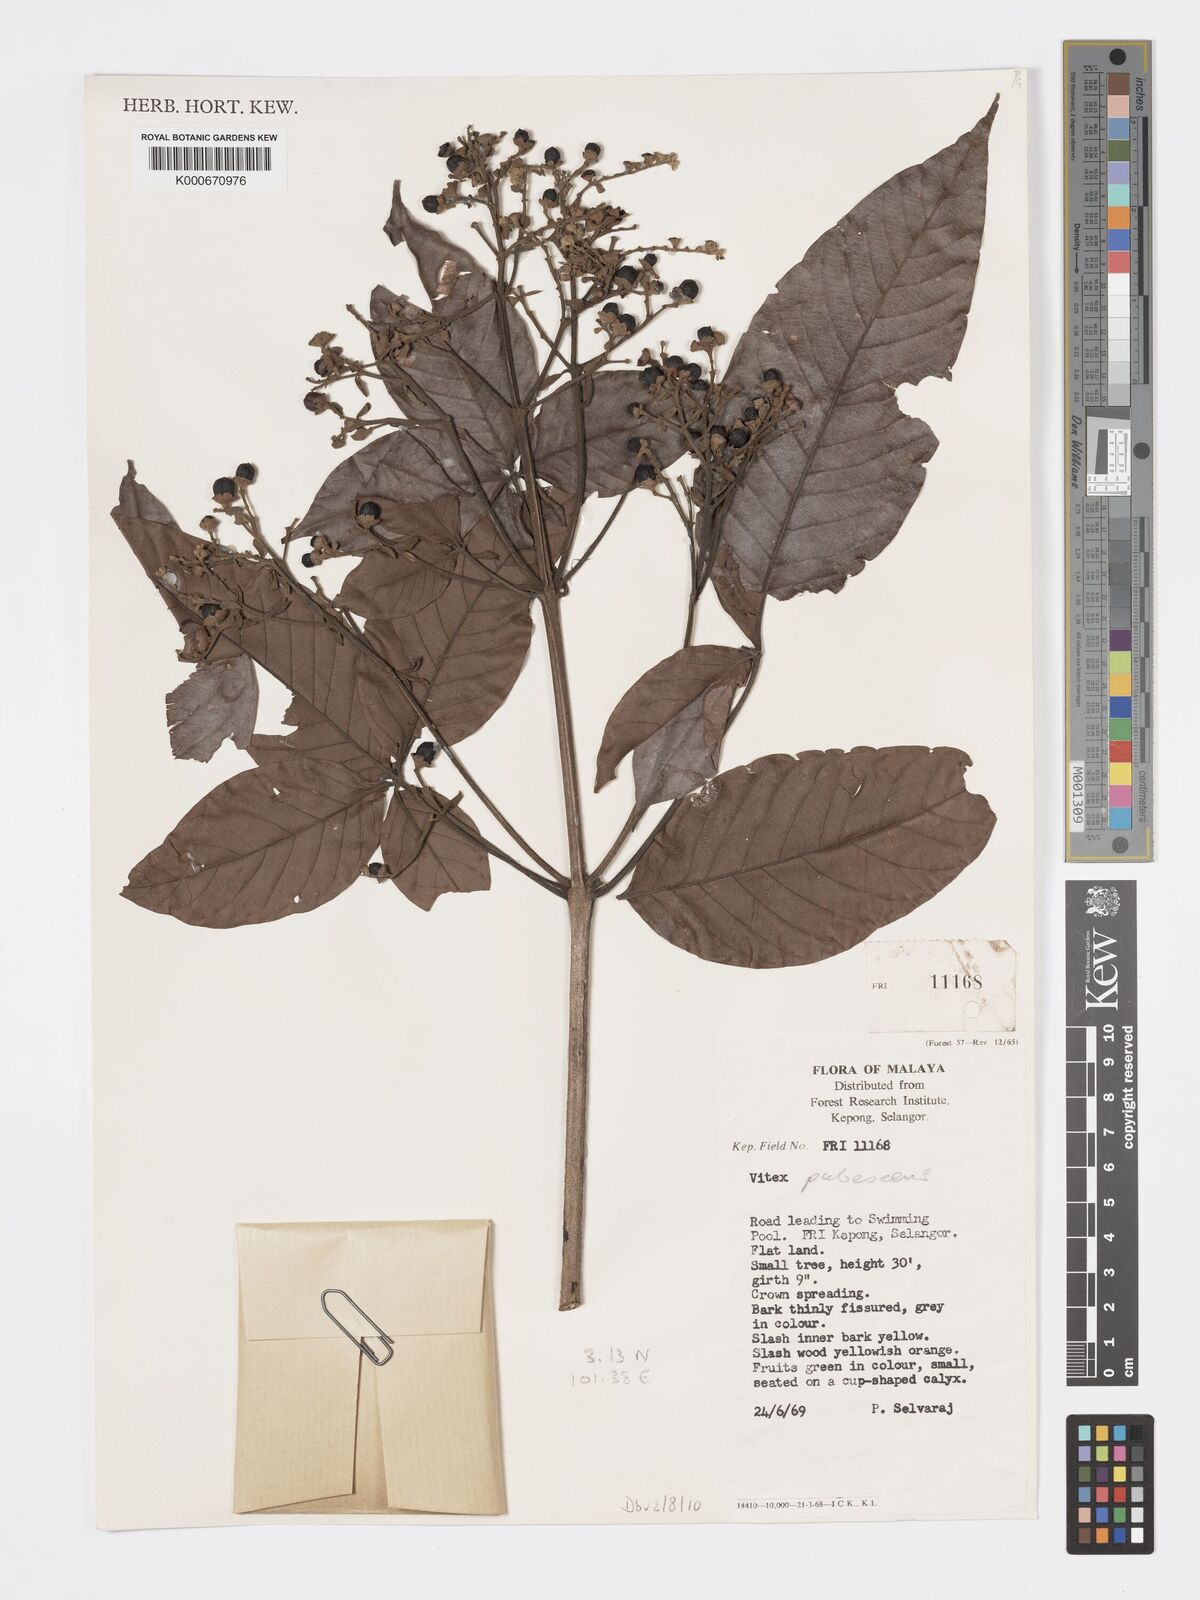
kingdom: Plantae
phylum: Tracheophyta
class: Magnoliopsida
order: Lamiales
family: Lamiaceae
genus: Vitex
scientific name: Vitex pinnata
